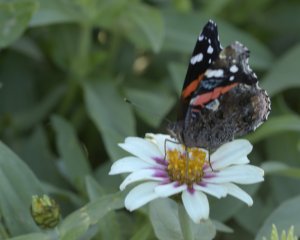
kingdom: Animalia
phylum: Arthropoda
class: Insecta
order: Lepidoptera
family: Nymphalidae
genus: Vanessa
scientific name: Vanessa atalanta
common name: Red Admiral
